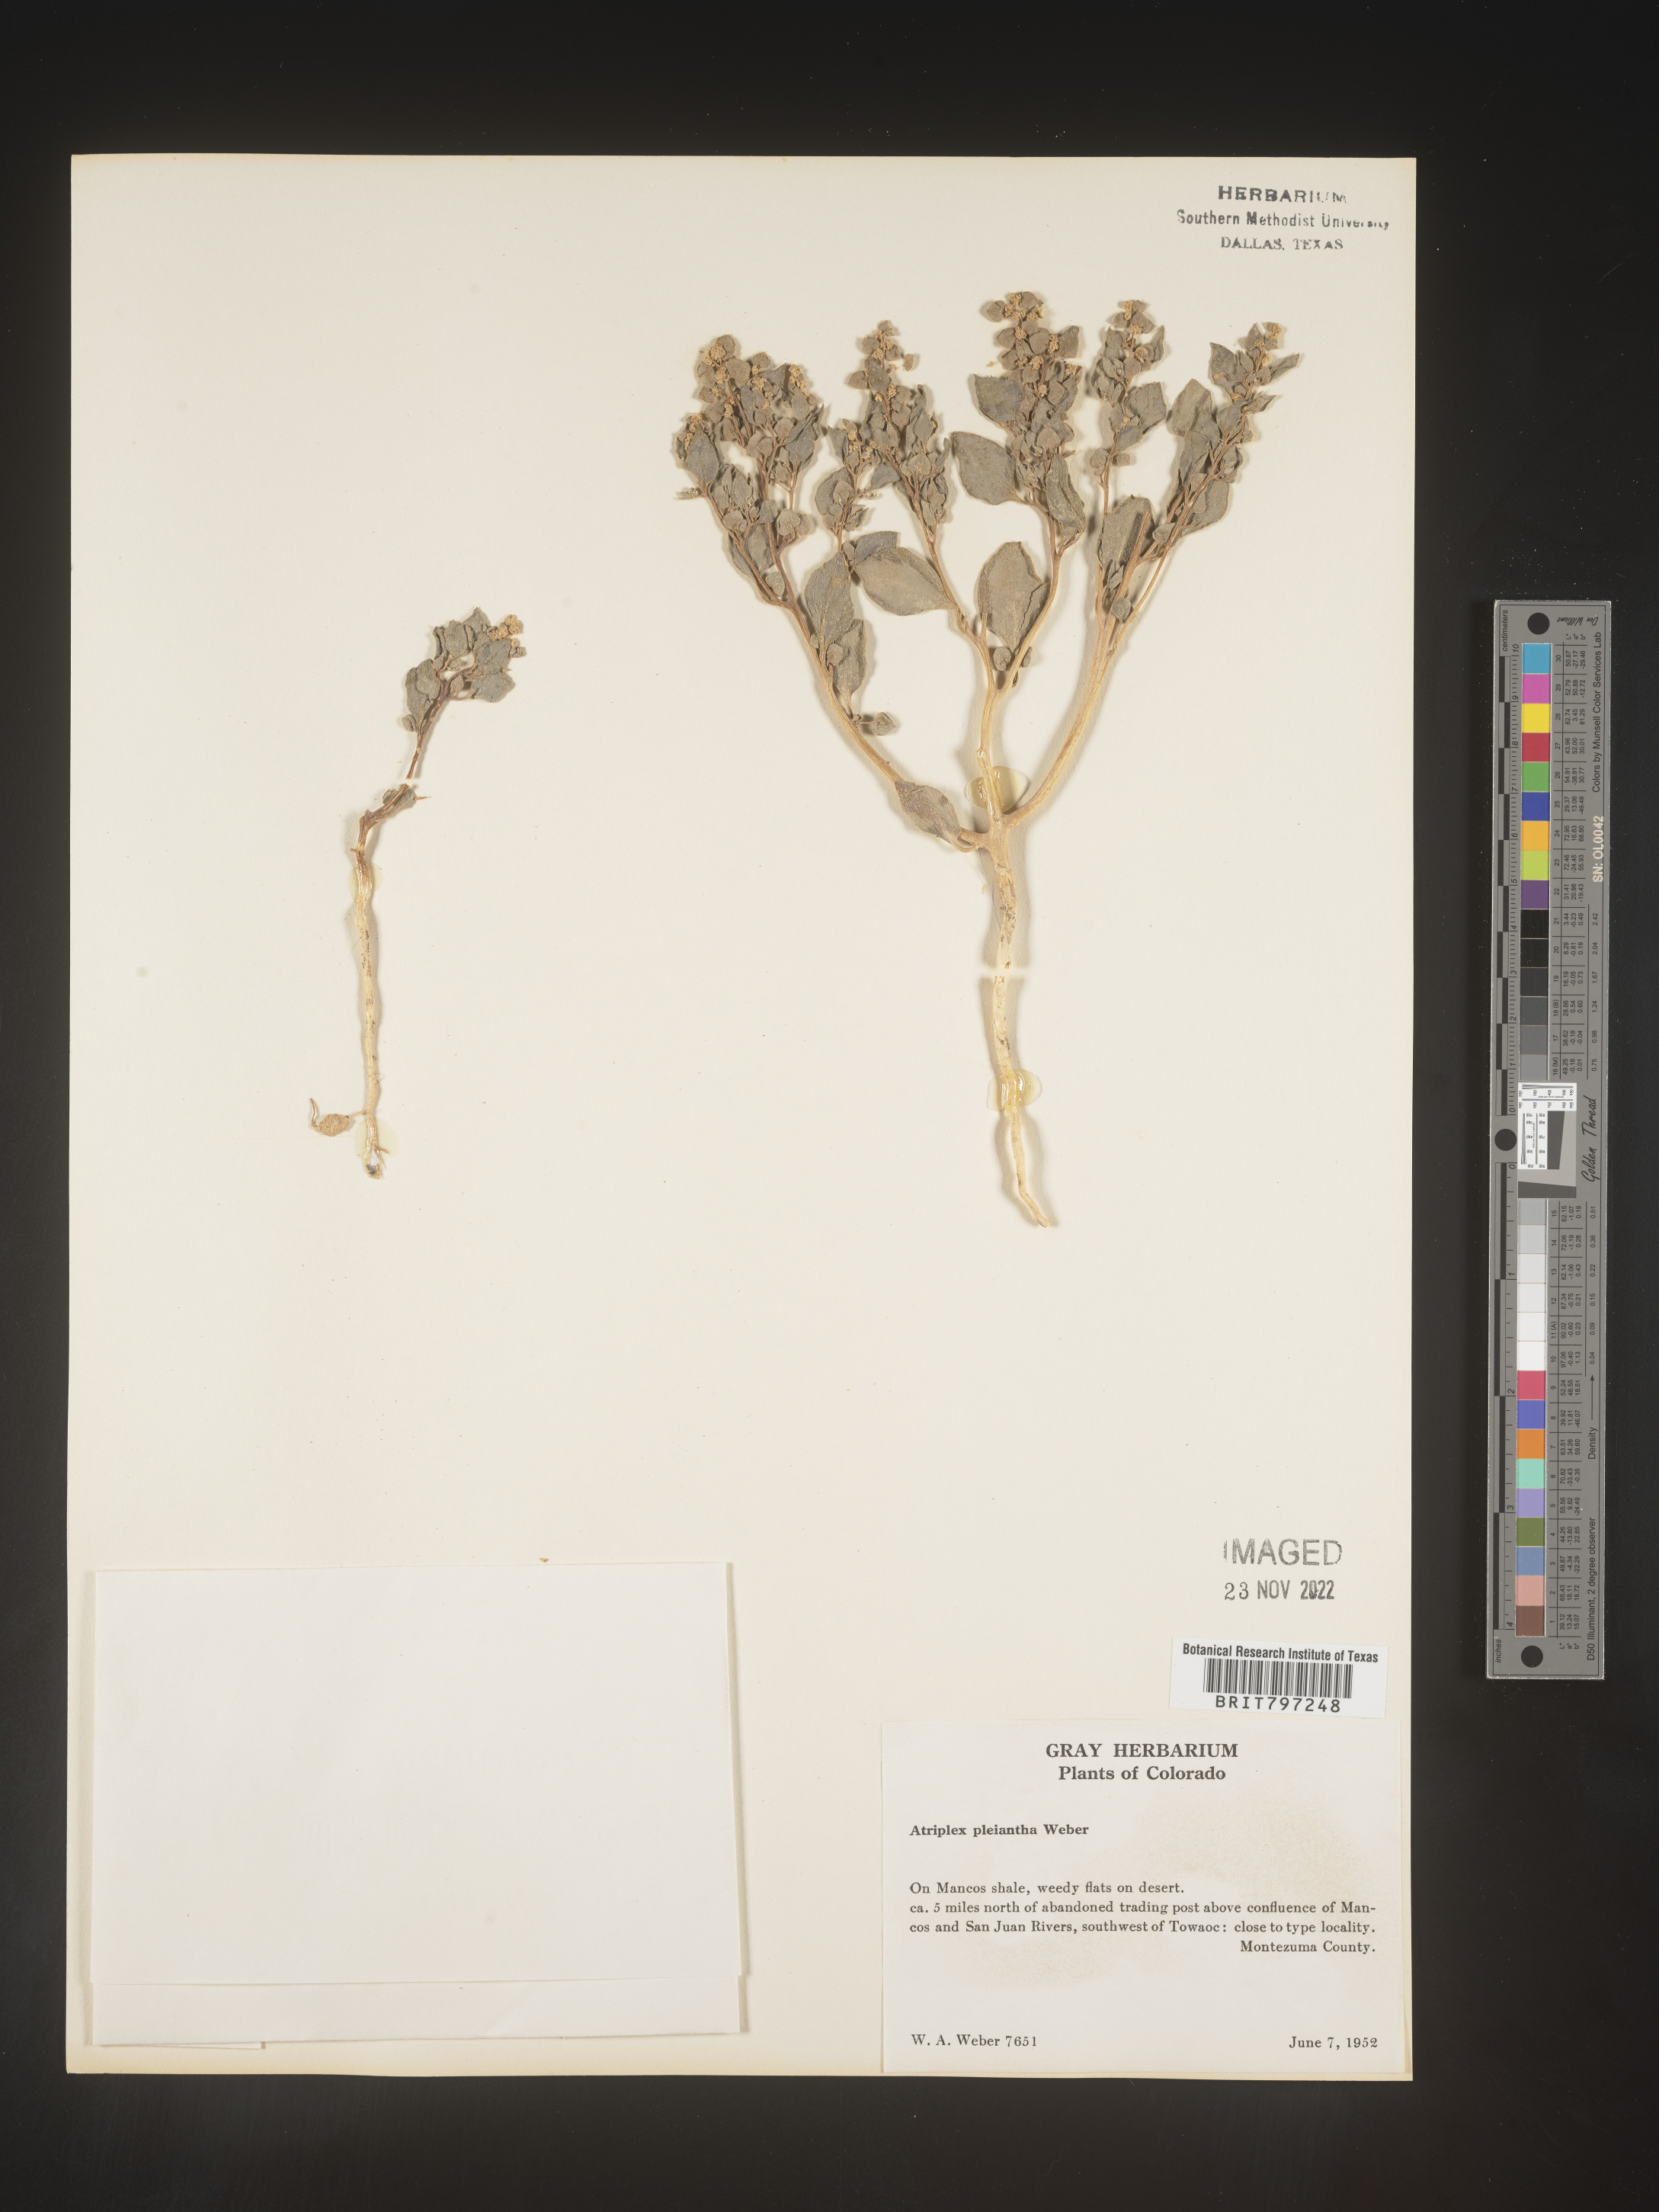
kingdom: Plantae
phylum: Tracheophyta
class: Magnoliopsida
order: Caryophyllales
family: Amaranthaceae
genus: Atriplex
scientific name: Atriplex
